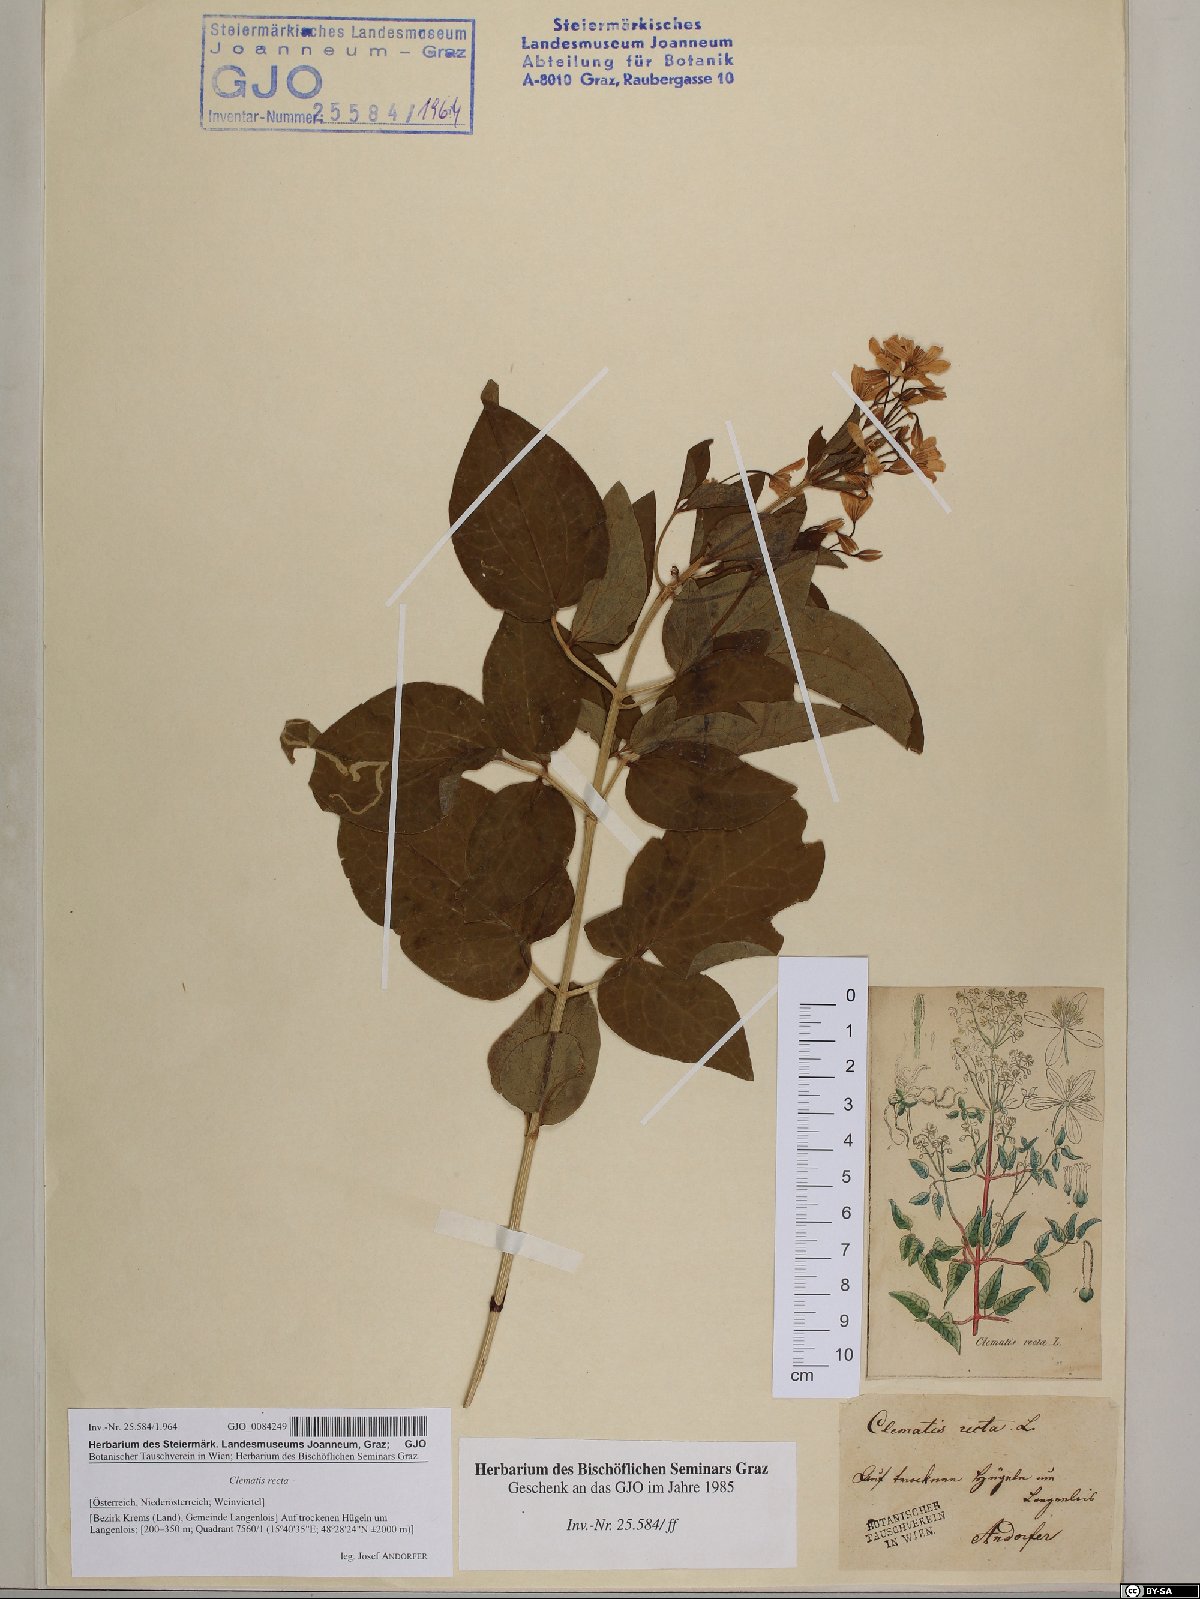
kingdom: Plantae
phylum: Tracheophyta
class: Magnoliopsida
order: Ranunculales
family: Ranunculaceae
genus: Clematis
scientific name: Clematis recta
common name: Ground clematis
